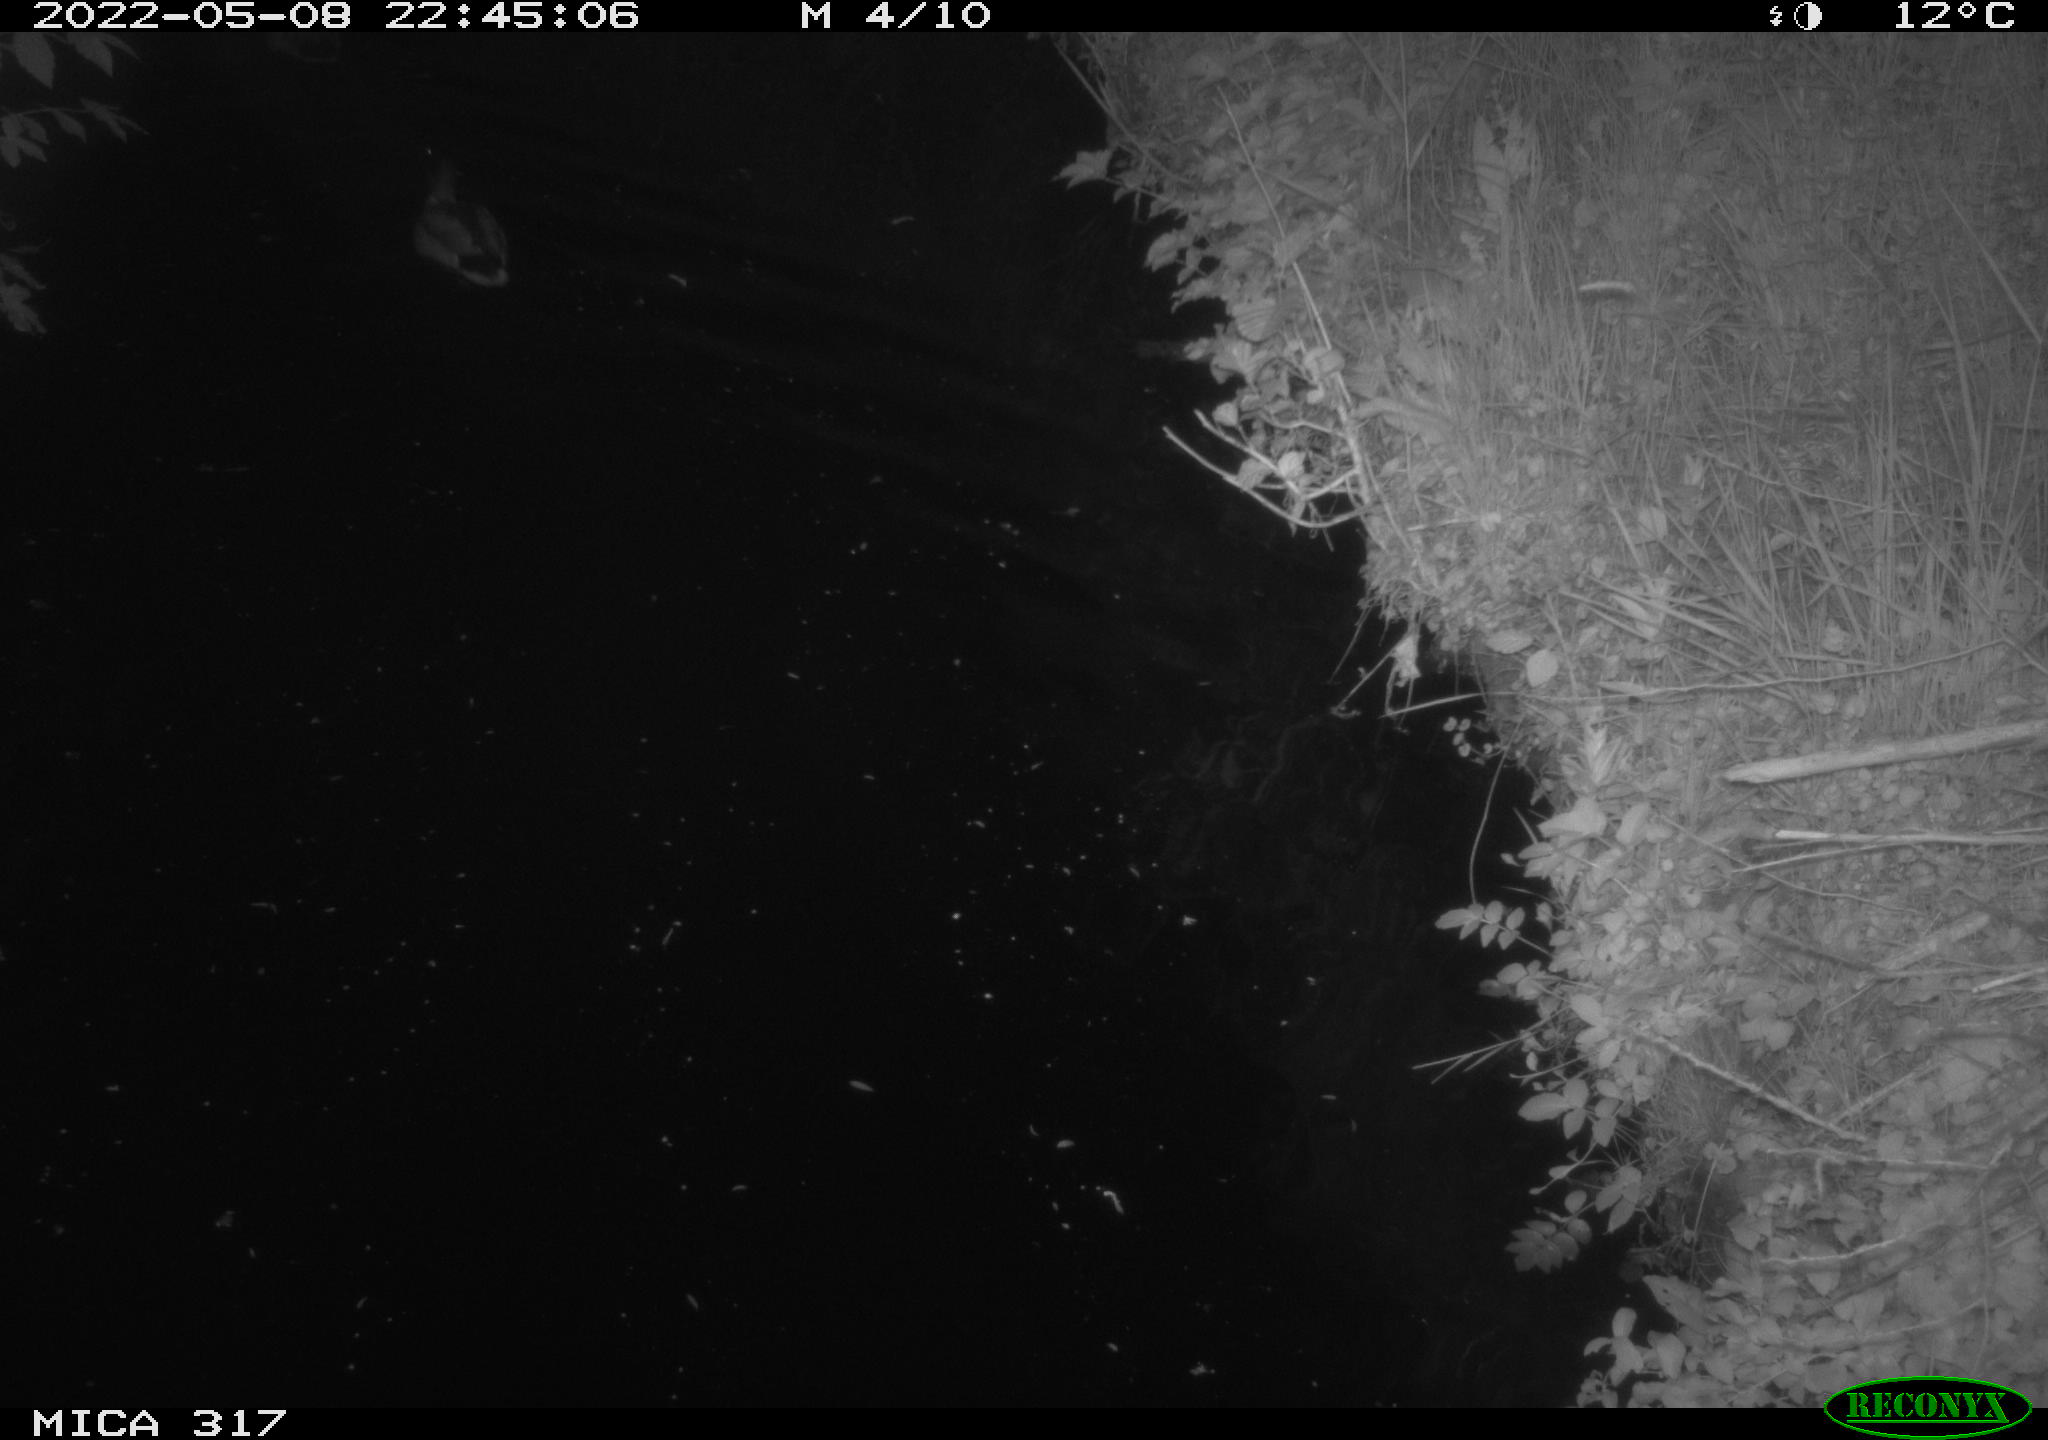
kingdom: Animalia
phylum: Chordata
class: Aves
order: Anseriformes
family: Anatidae
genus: Anas
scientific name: Anas platyrhynchos
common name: Mallard
